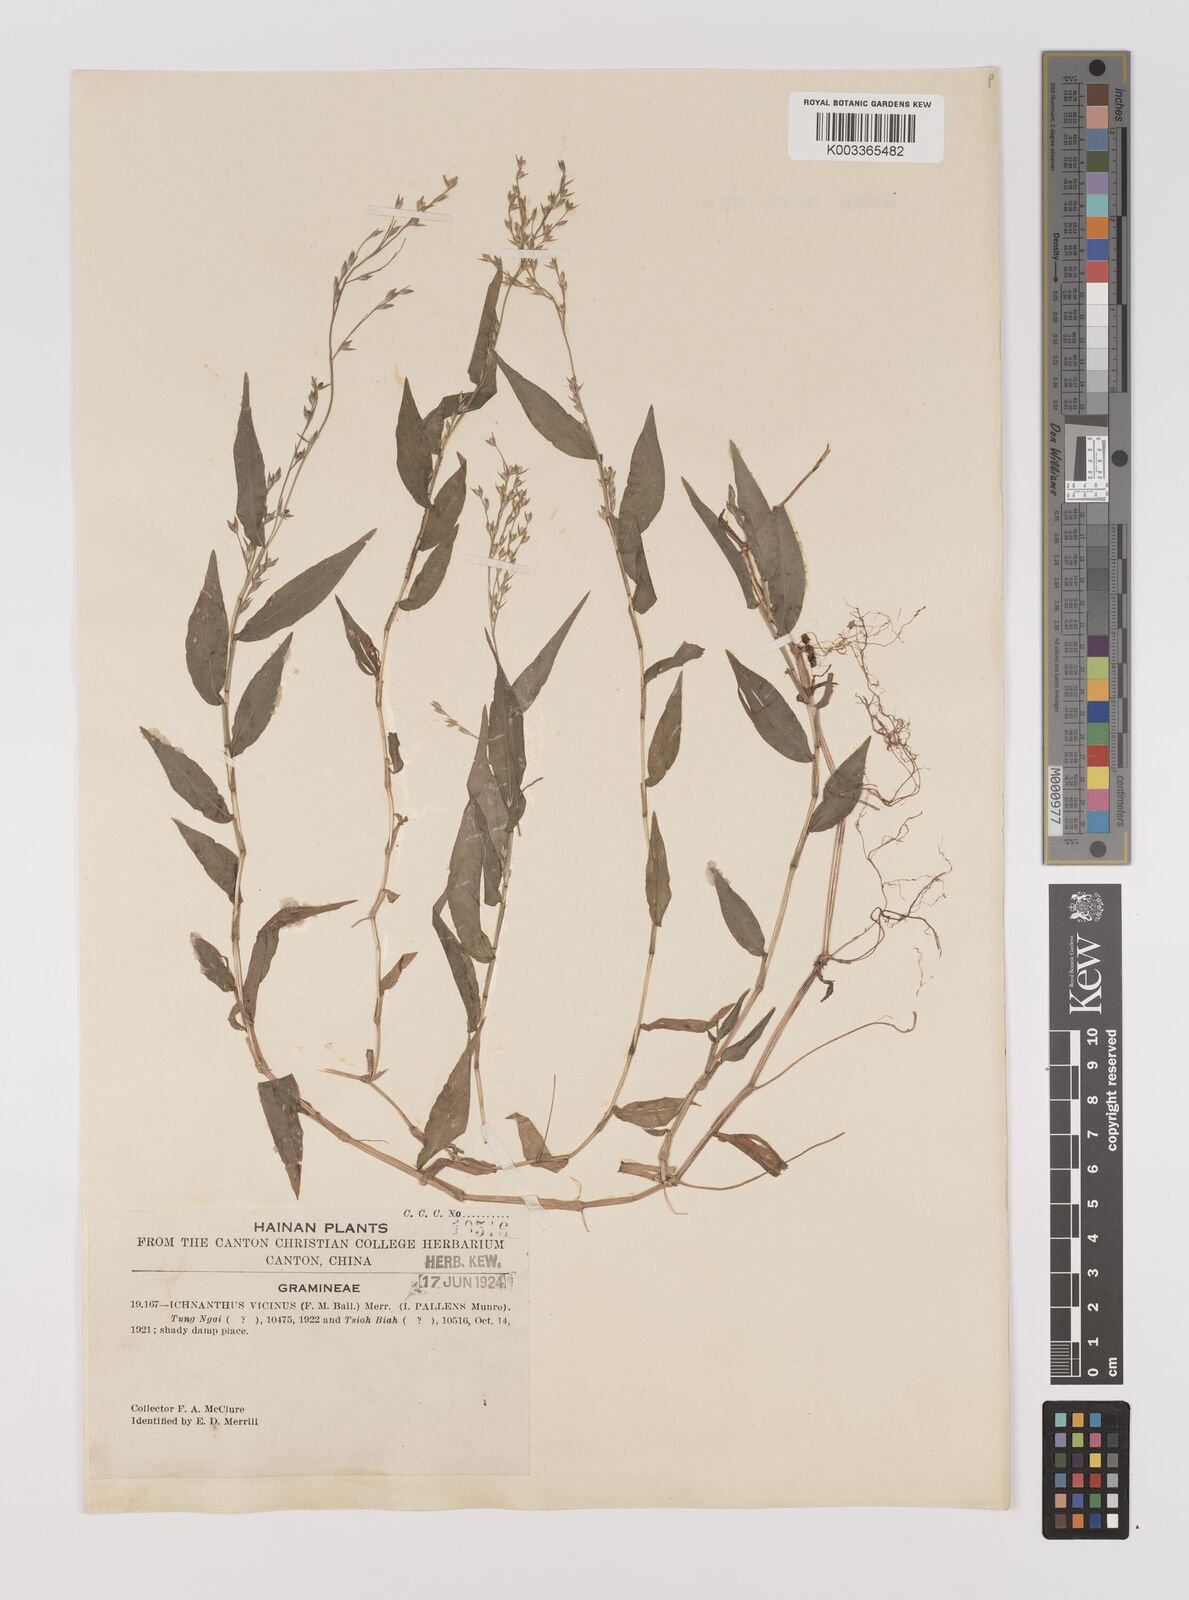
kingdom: Plantae
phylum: Tracheophyta
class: Liliopsida
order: Poales
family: Poaceae
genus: Ichnanthus
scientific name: Ichnanthus pallens
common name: Water grass
